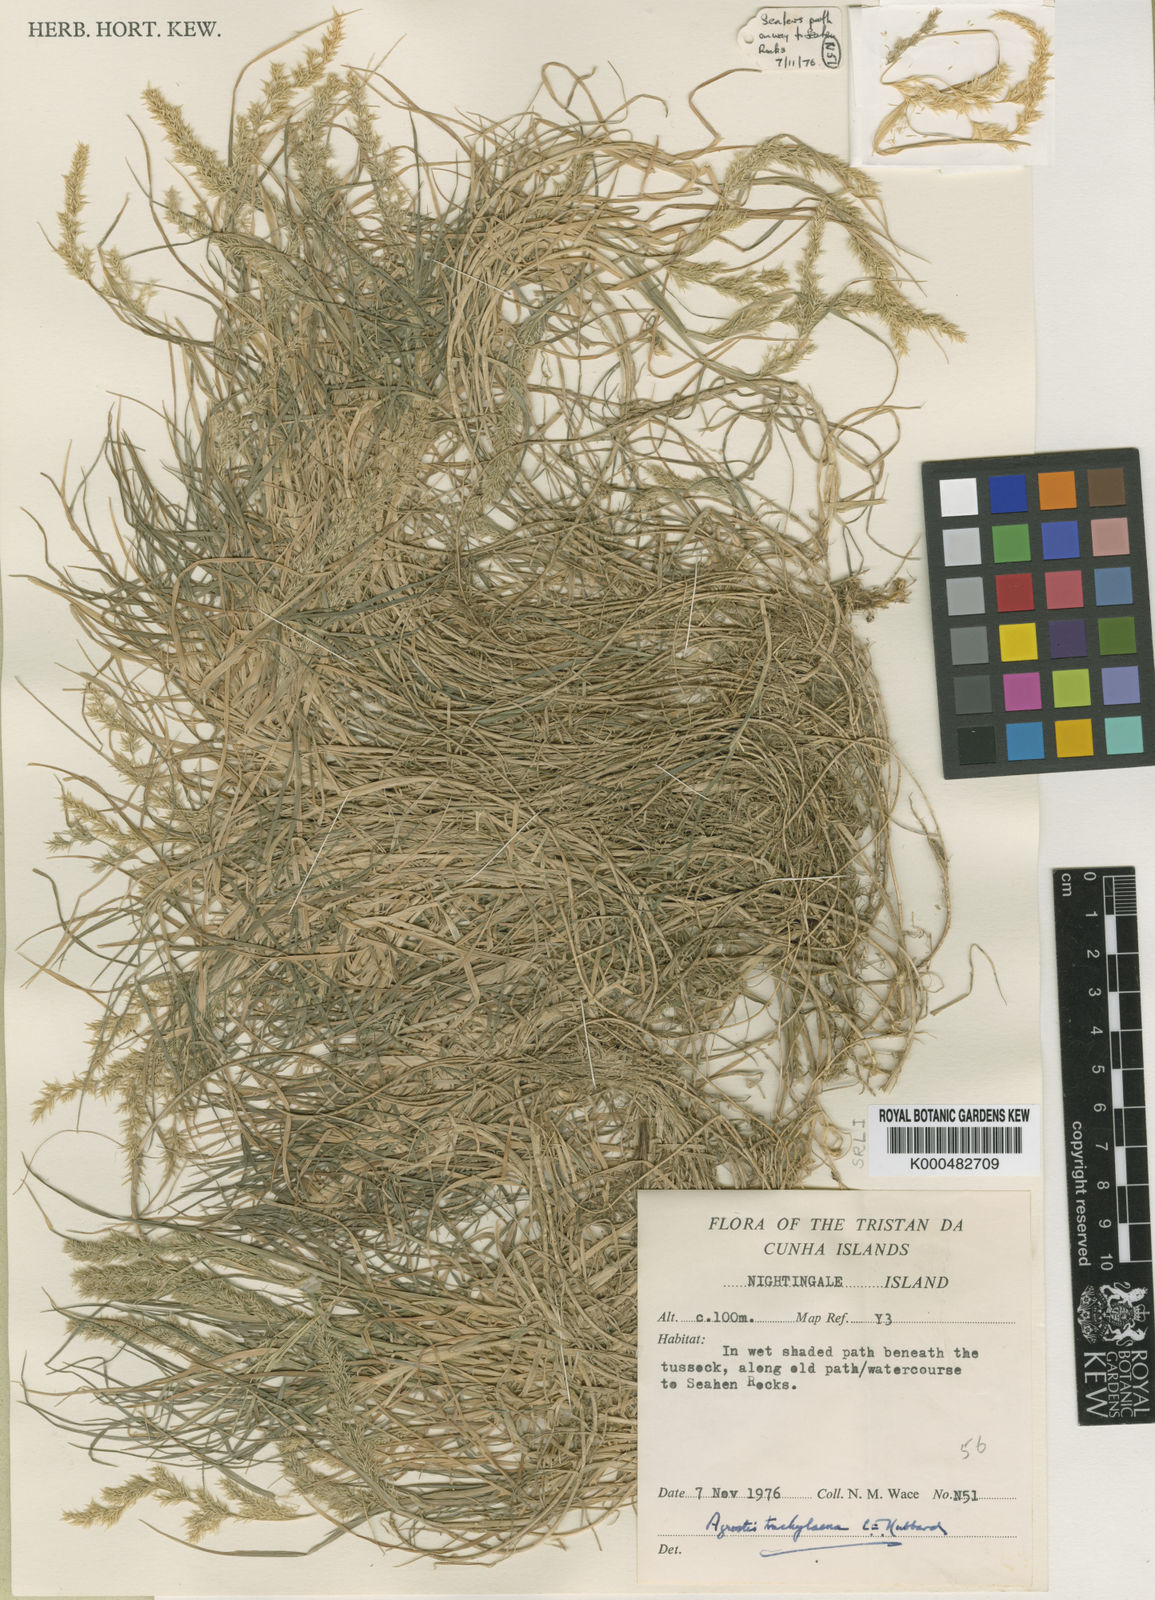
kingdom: Plantae
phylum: Tracheophyta
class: Liliopsida
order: Poales
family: Poaceae
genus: Agrostis
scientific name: Agrostis trachychlaena
